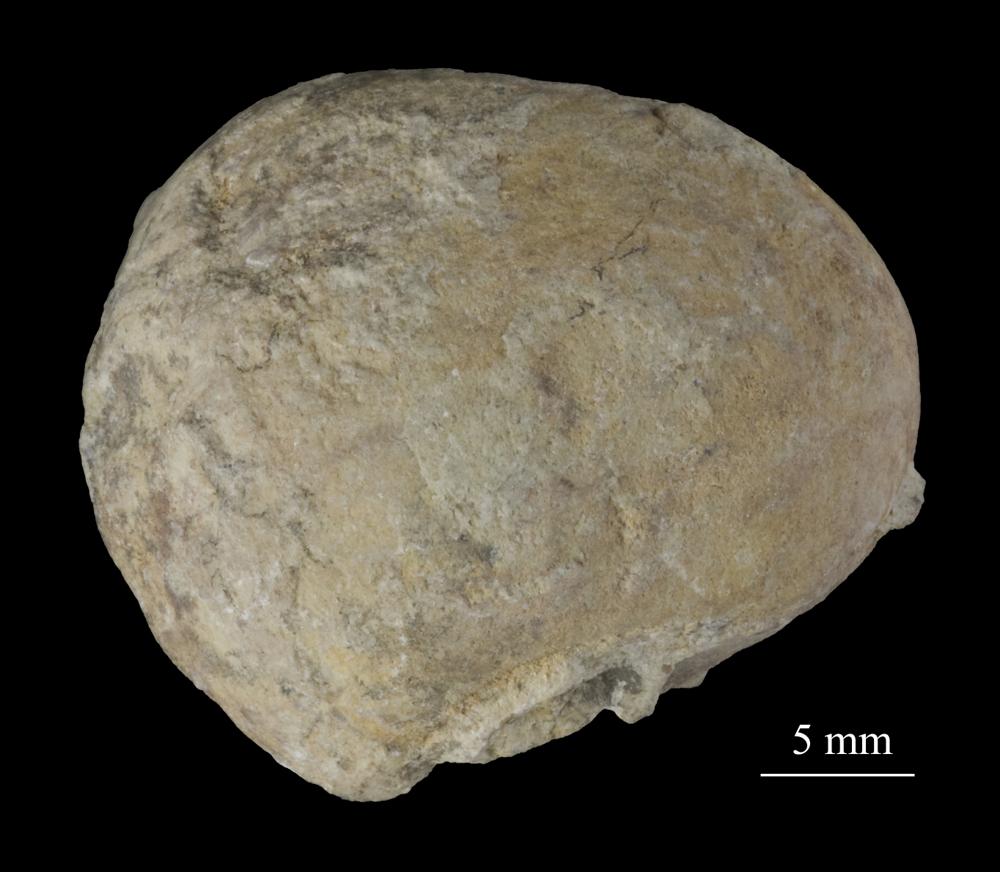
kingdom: Animalia
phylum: Mollusca
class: Gastropoda
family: Bucaniidae
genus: Tetranota
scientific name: Tetranota Bucaniella jugata
